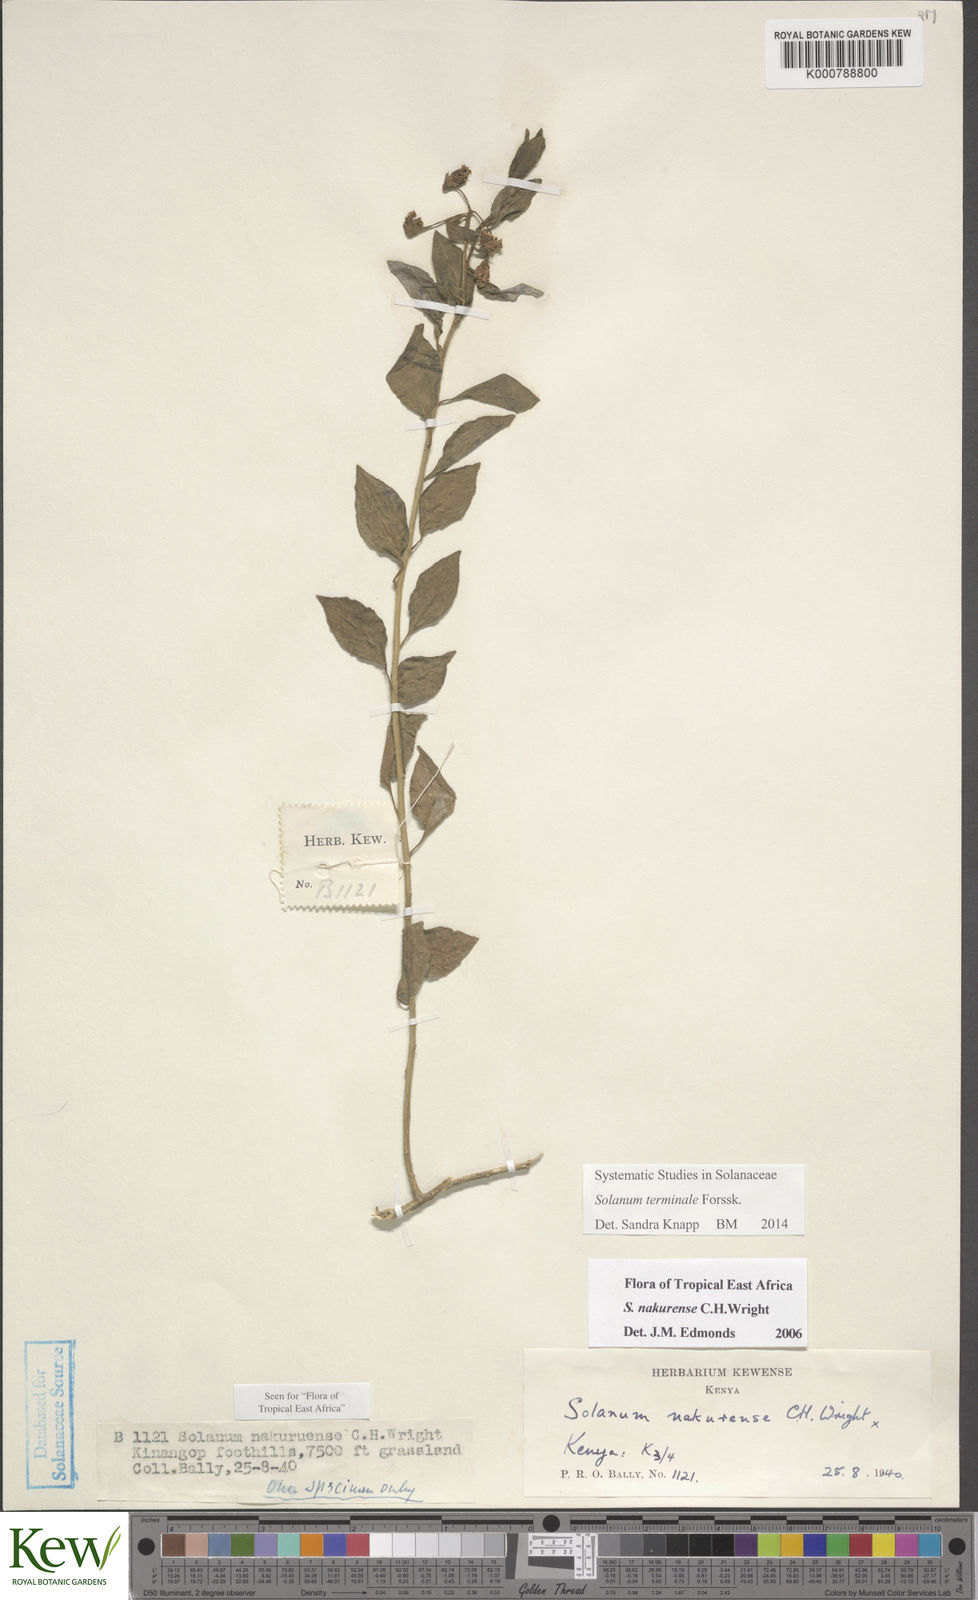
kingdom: Plantae
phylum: Tracheophyta
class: Magnoliopsida
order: Solanales
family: Solanaceae
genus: Solanum
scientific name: Solanum terminale
